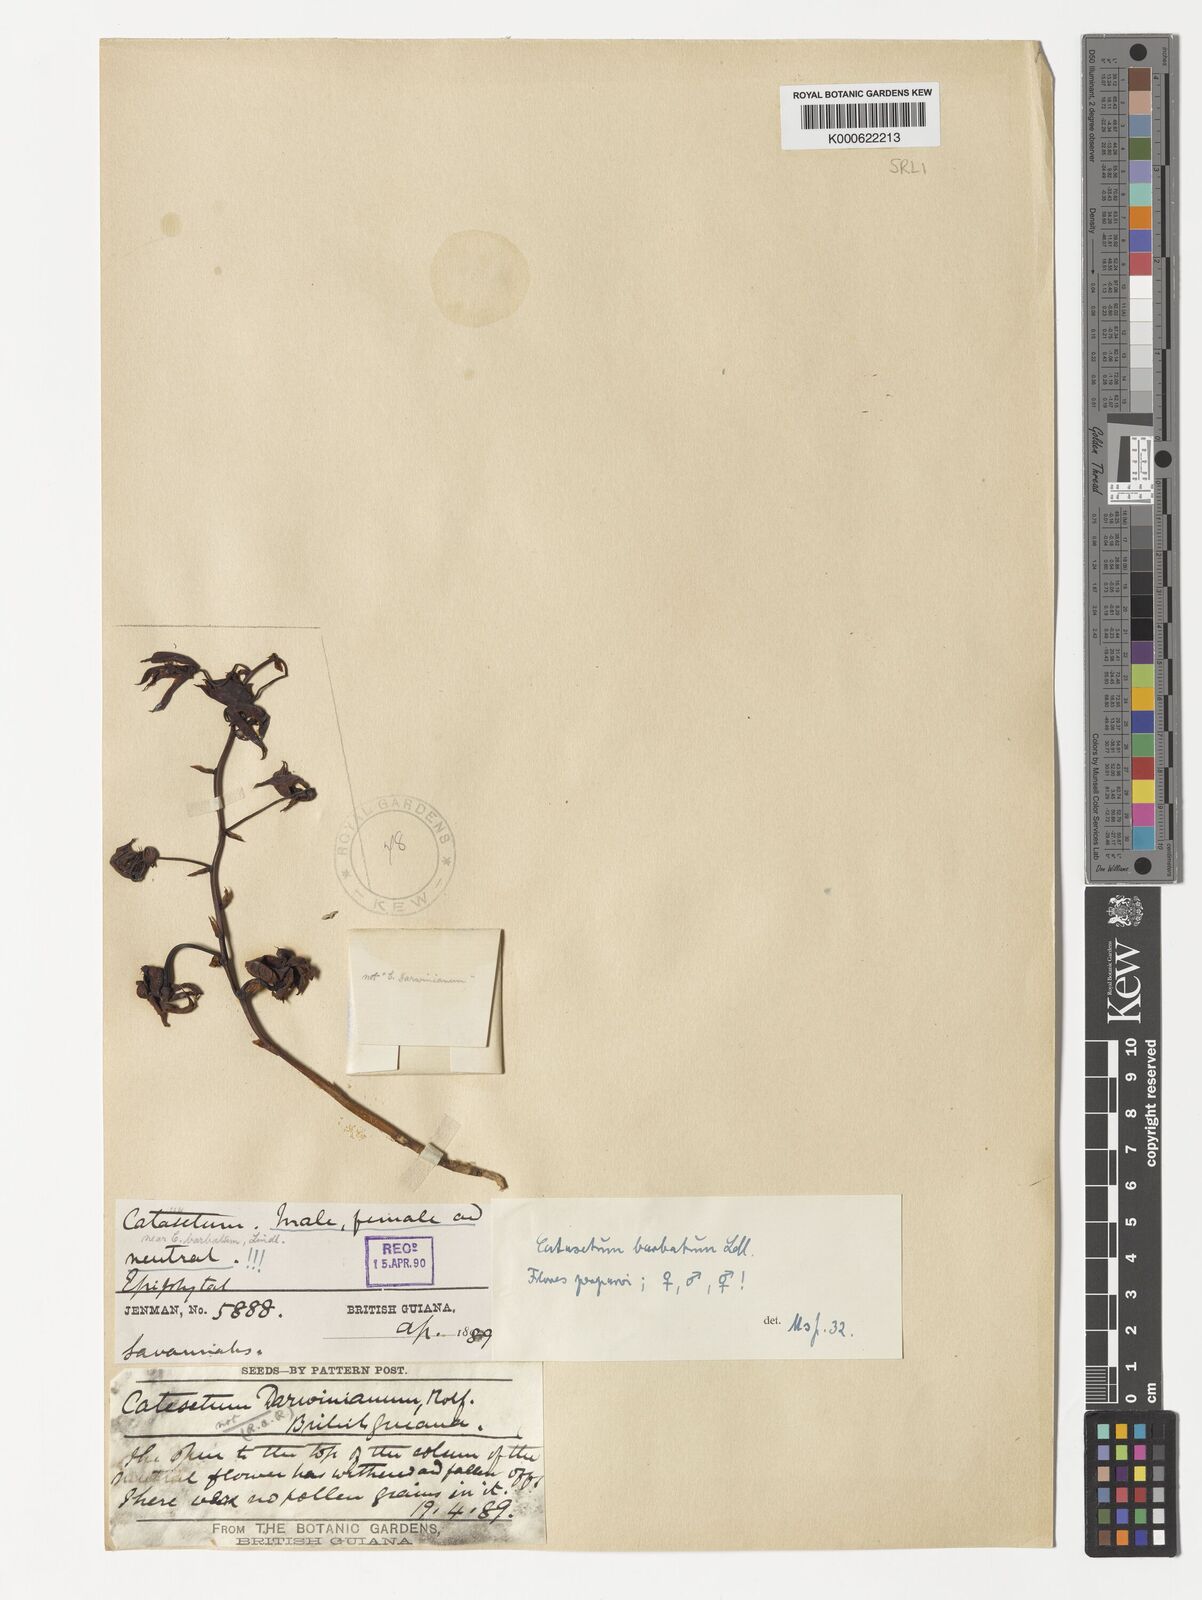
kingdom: Plantae
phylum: Tracheophyta
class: Liliopsida
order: Asparagales
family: Orchidaceae
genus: Catasetum
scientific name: Catasetum barbatum
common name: Bearded catasetum
